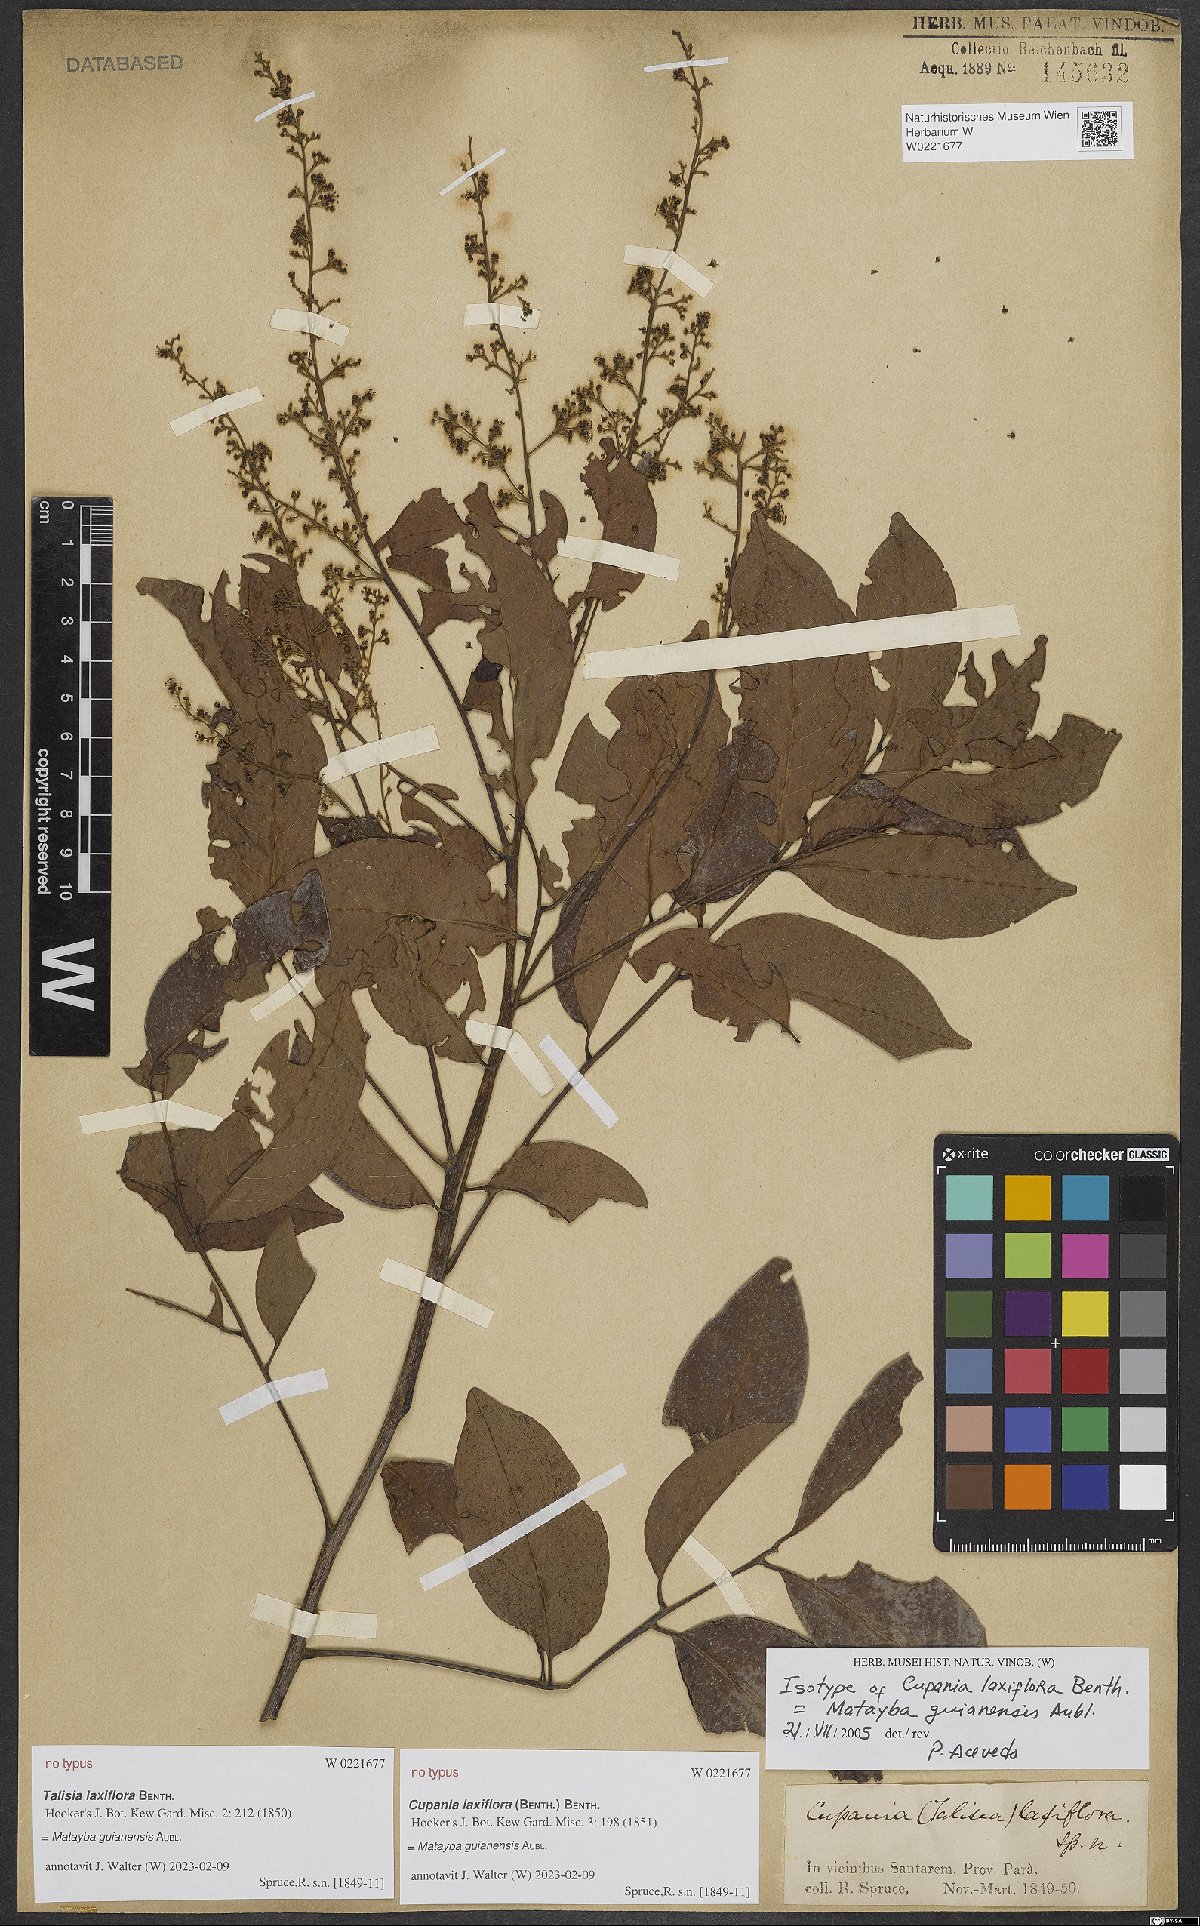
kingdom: Plantae
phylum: Tracheophyta
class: Magnoliopsida
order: Sapindales
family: Sapindaceae
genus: Matayba
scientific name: Matayba guianensis
